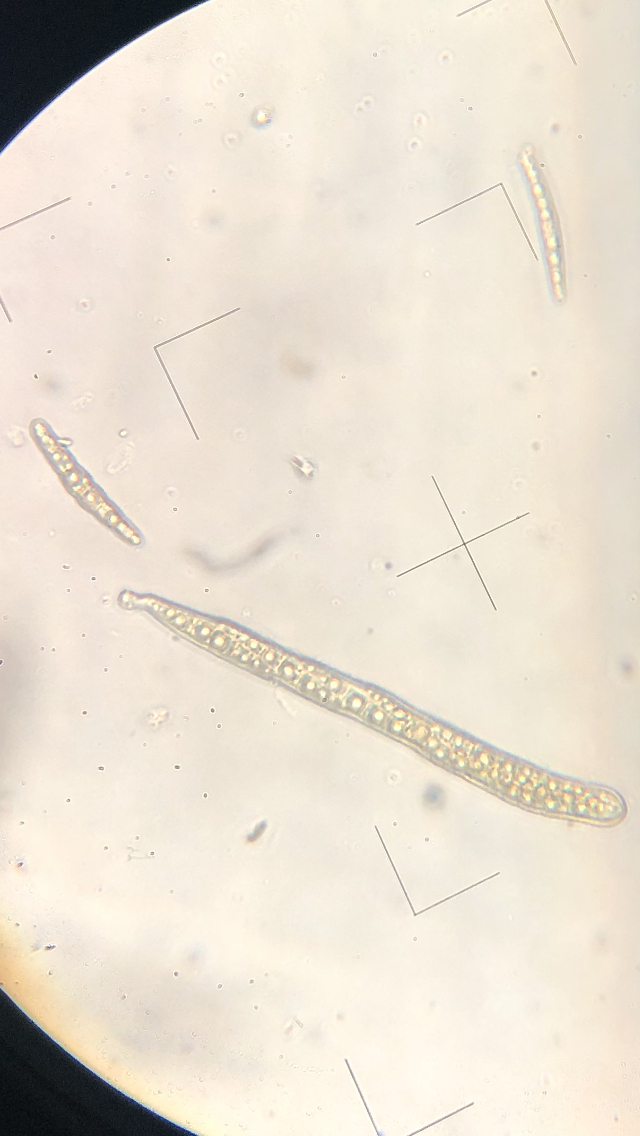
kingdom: Fungi
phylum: Ascomycota
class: Dothideomycetes
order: Pleosporales
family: Leptosphaeriaceae
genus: Leptosphaeria
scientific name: Leptosphaeria acuta
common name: spids kulkegle
